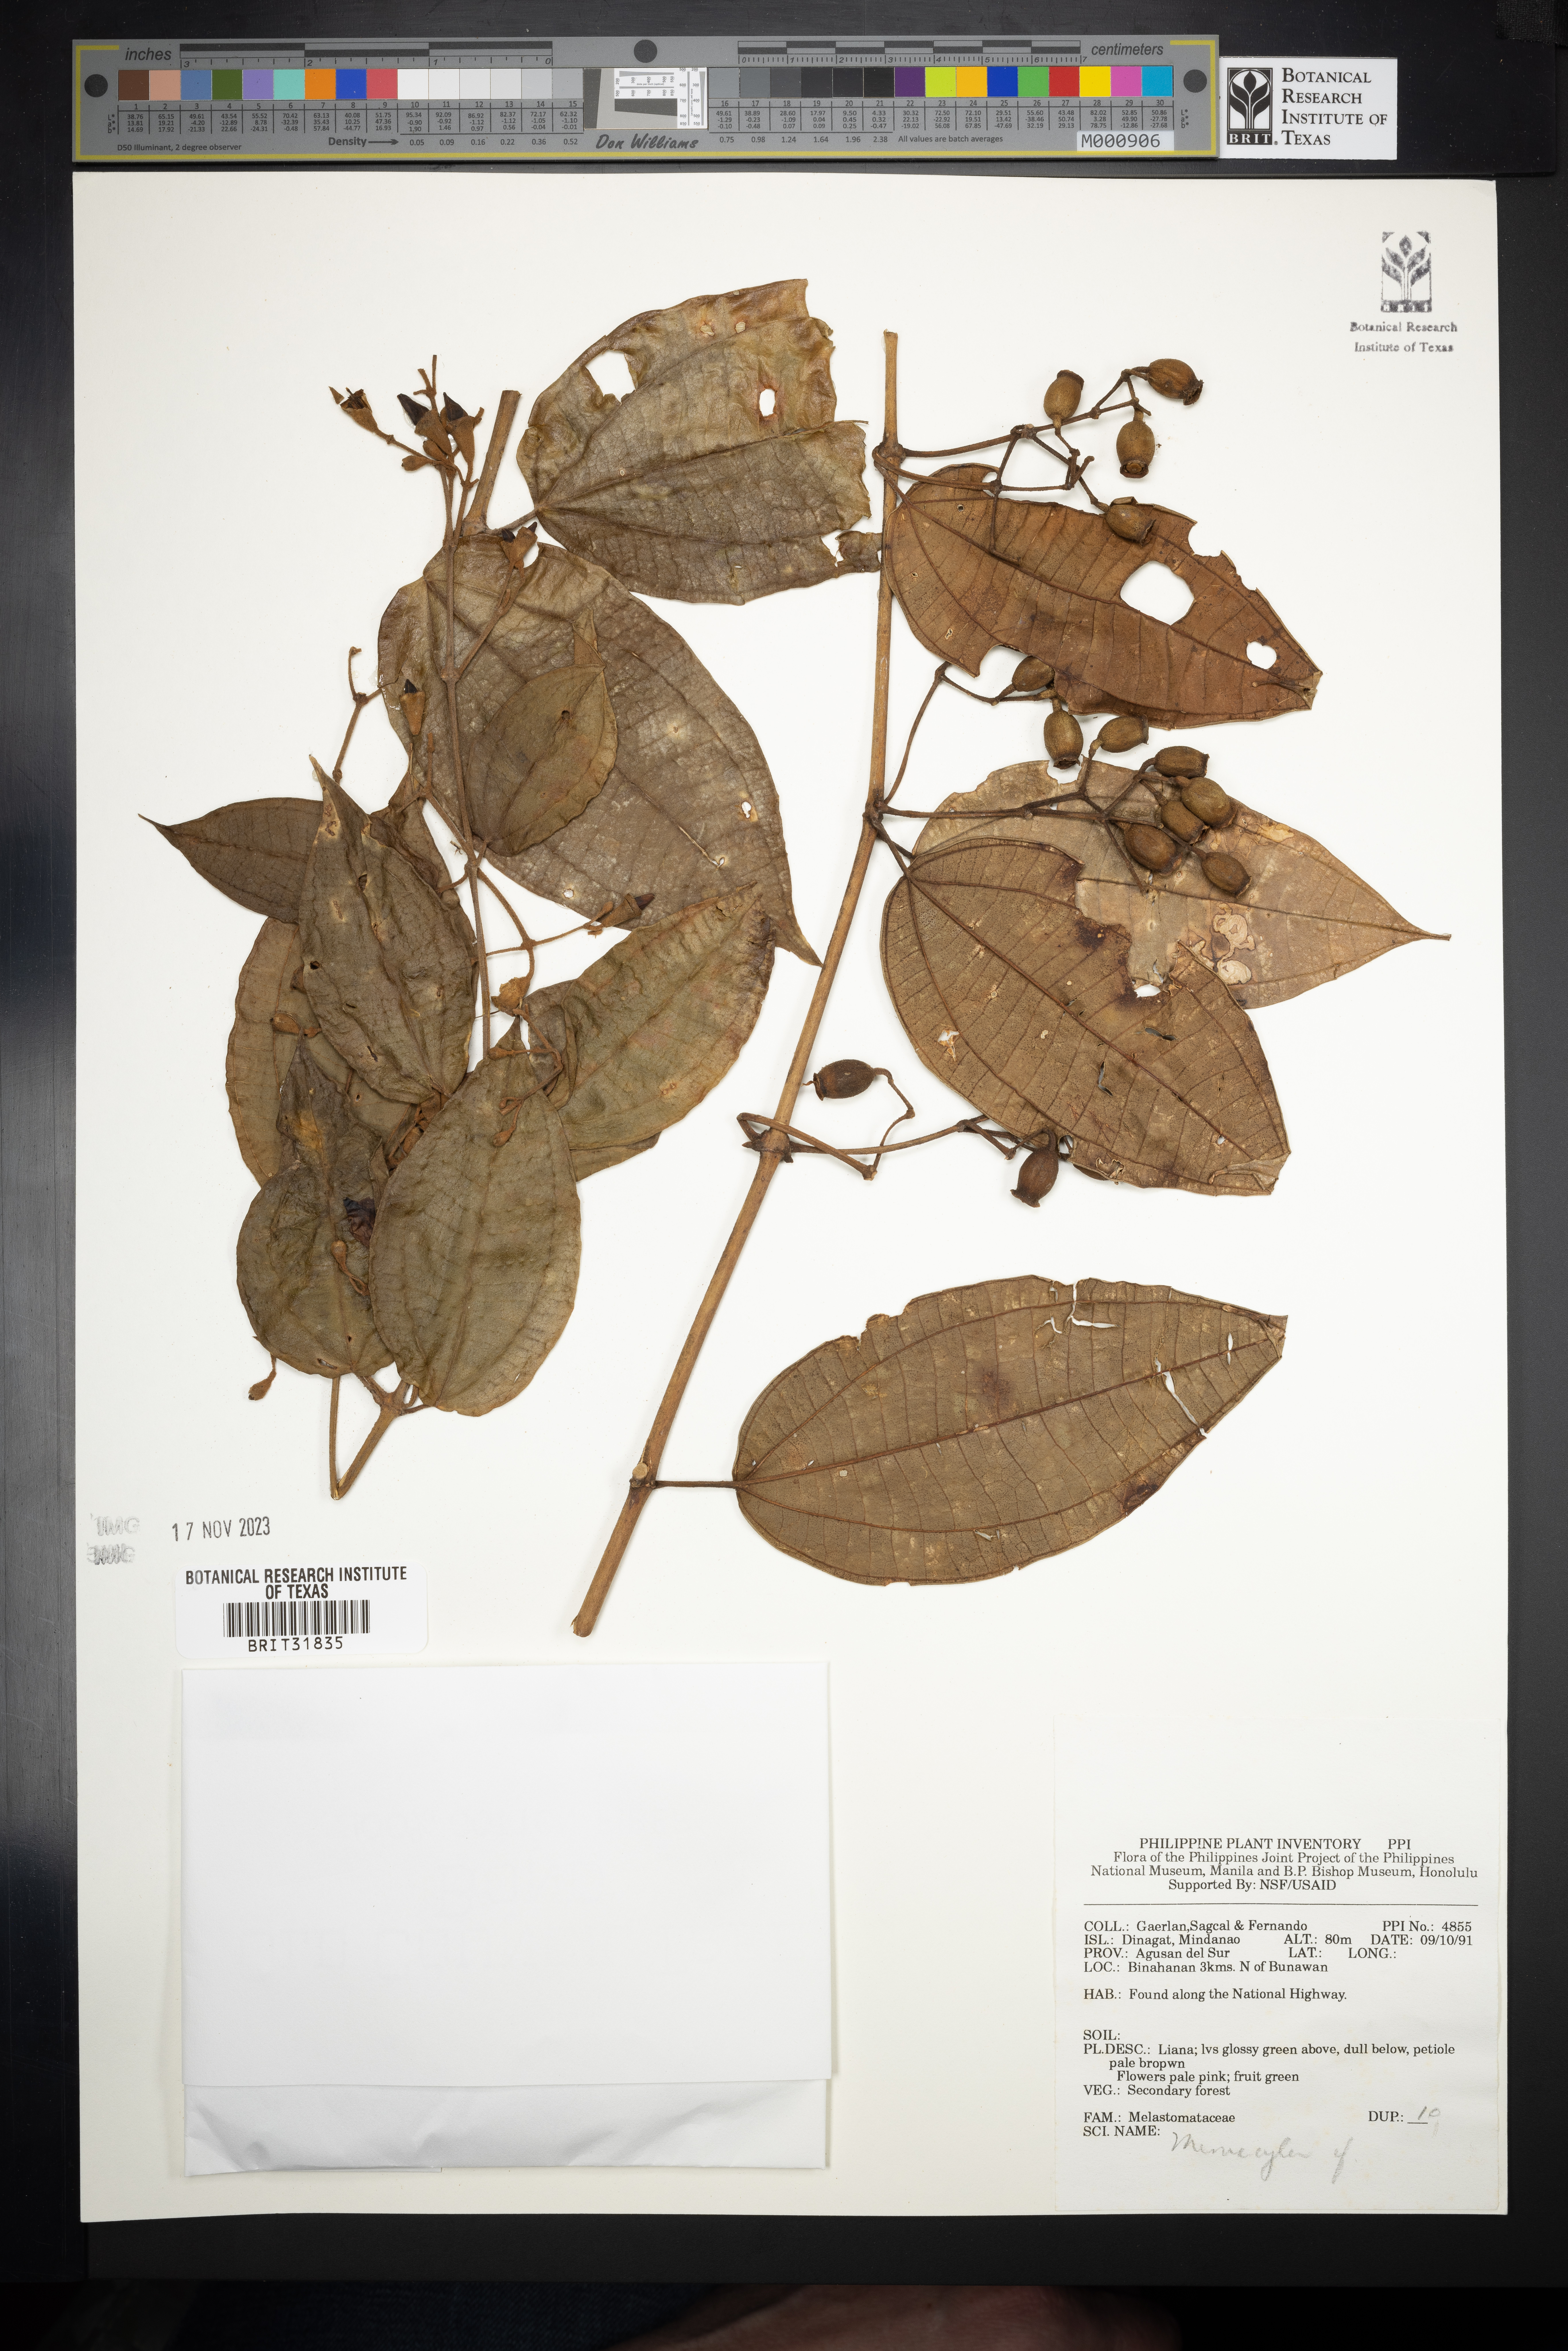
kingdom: Plantae
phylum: Tracheophyta
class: Magnoliopsida
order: Myrtales
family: Melastomataceae
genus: Memecylon
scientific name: Memecylon
